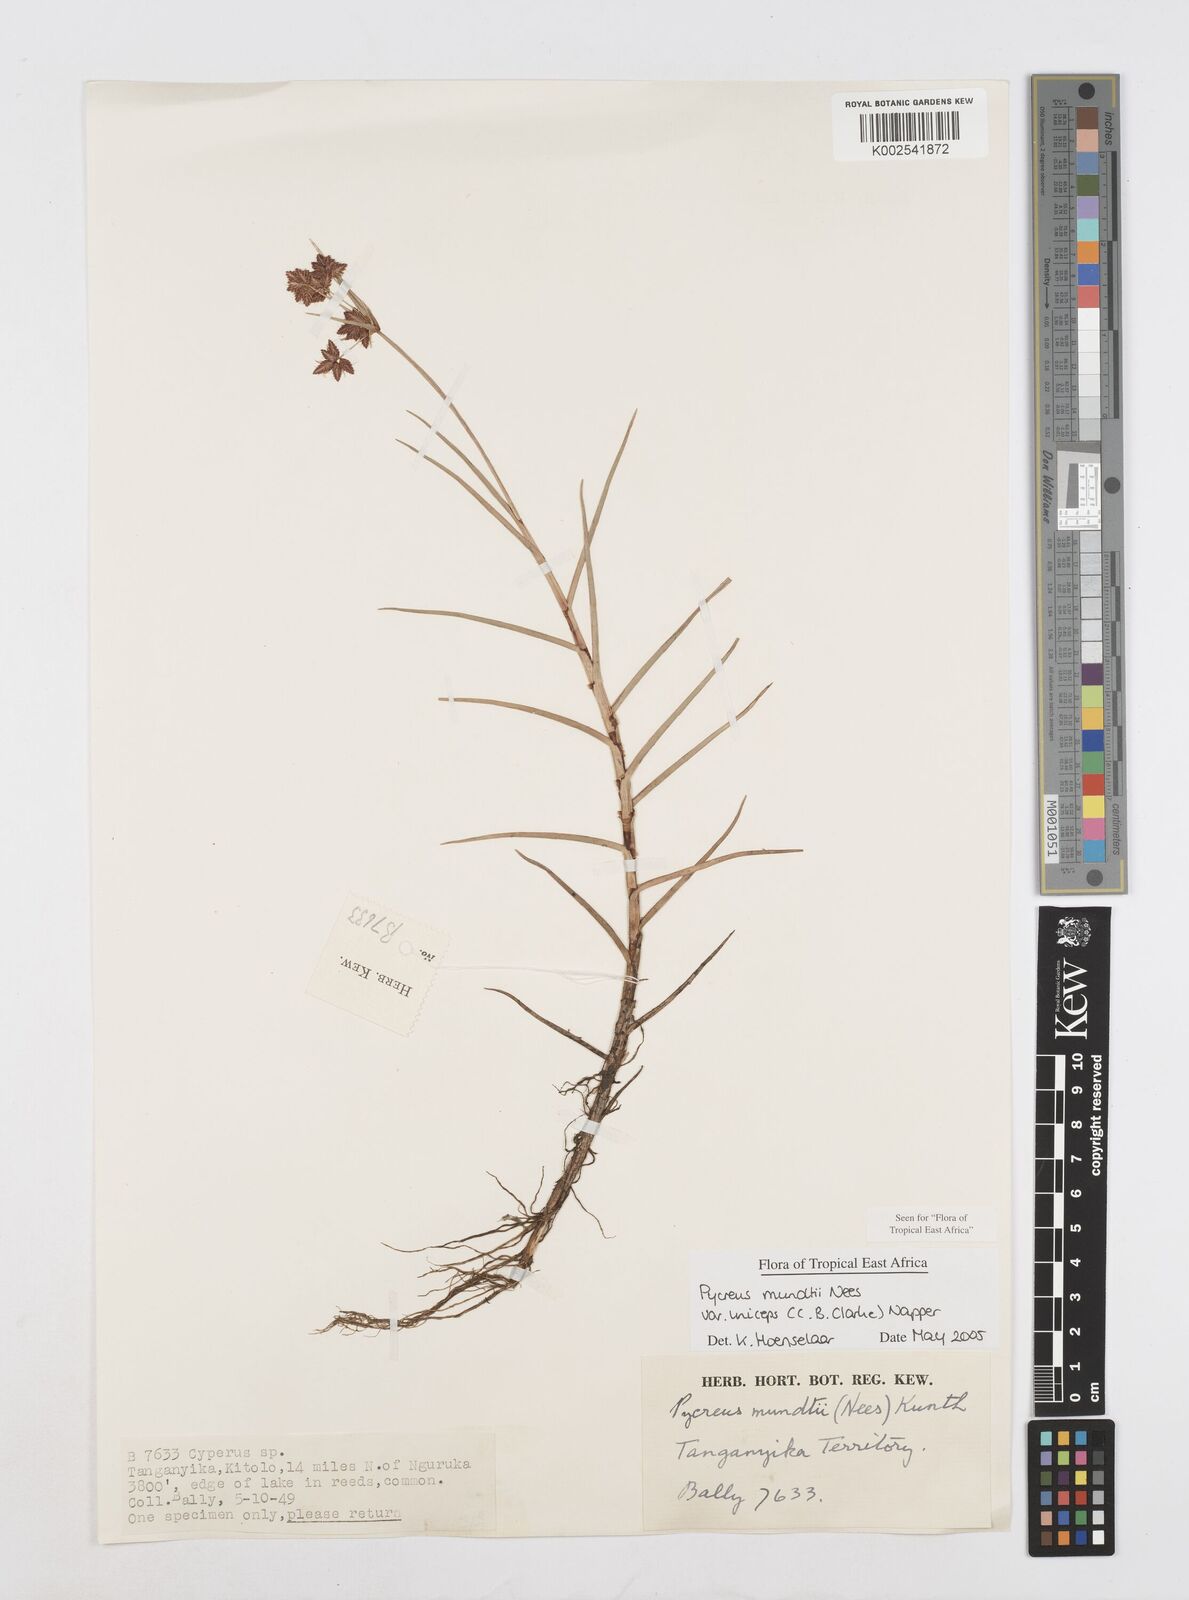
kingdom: Plantae
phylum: Tracheophyta
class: Liliopsida
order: Poales
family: Cyperaceae
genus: Cyperus
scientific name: Cyperus mundii
